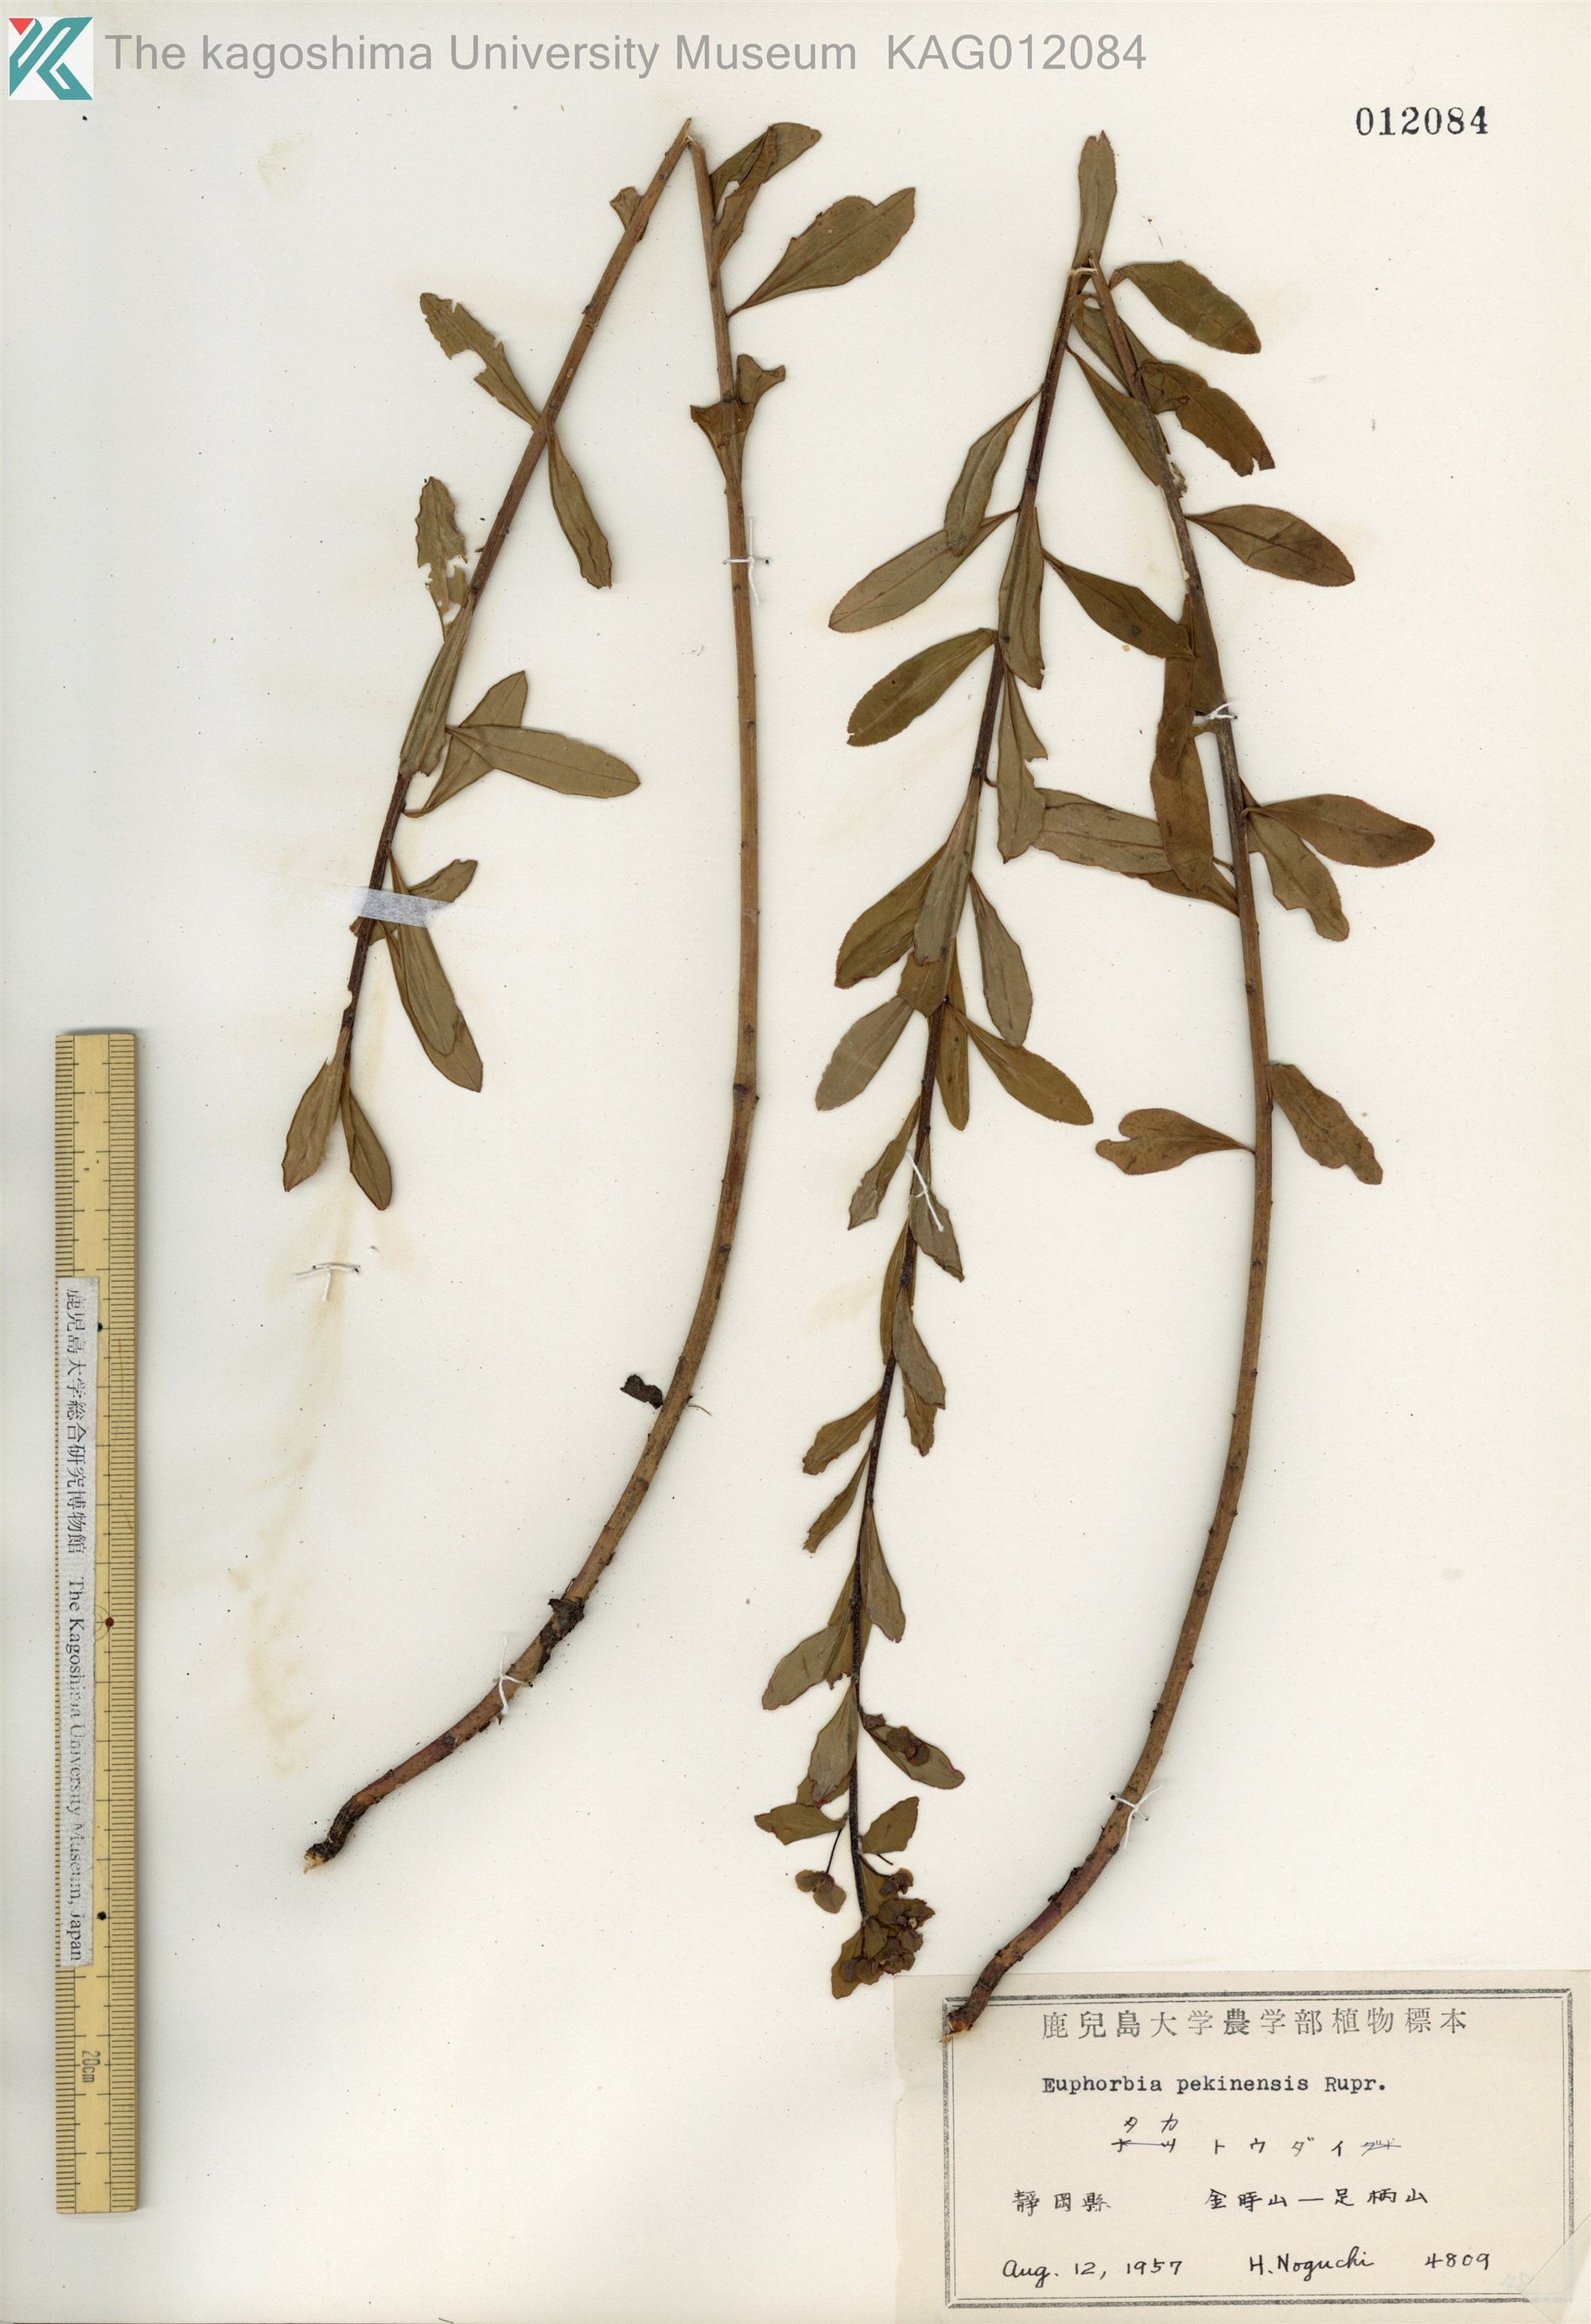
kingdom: Plantae
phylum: Tracheophyta
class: Magnoliopsida
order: Malpighiales
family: Euphorbiaceae
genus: Euphorbia
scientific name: Euphorbia pekinensis
